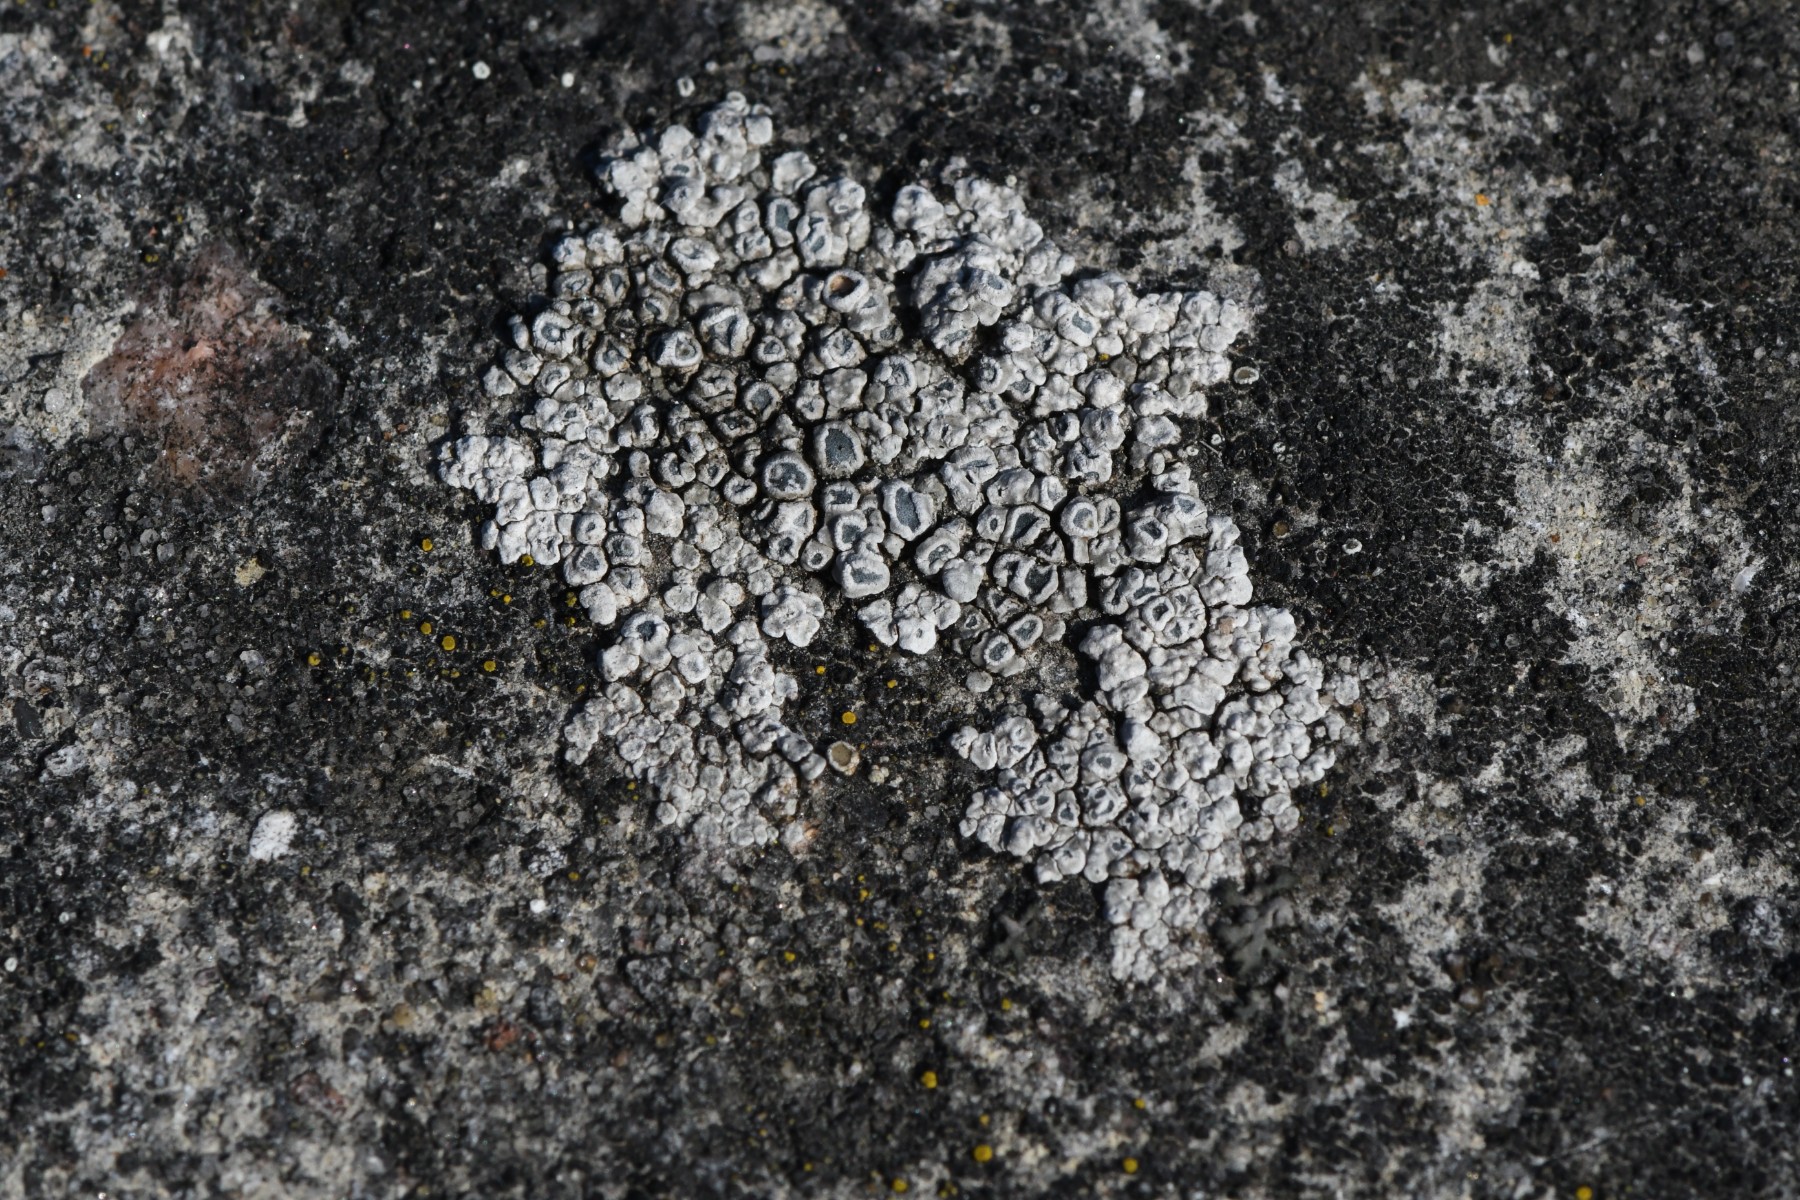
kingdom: Fungi
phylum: Ascomycota
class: Lecanoromycetes
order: Pertusariales
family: Megasporaceae
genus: Circinaria
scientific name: Circinaria contorta
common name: indviklet hulskivelav
